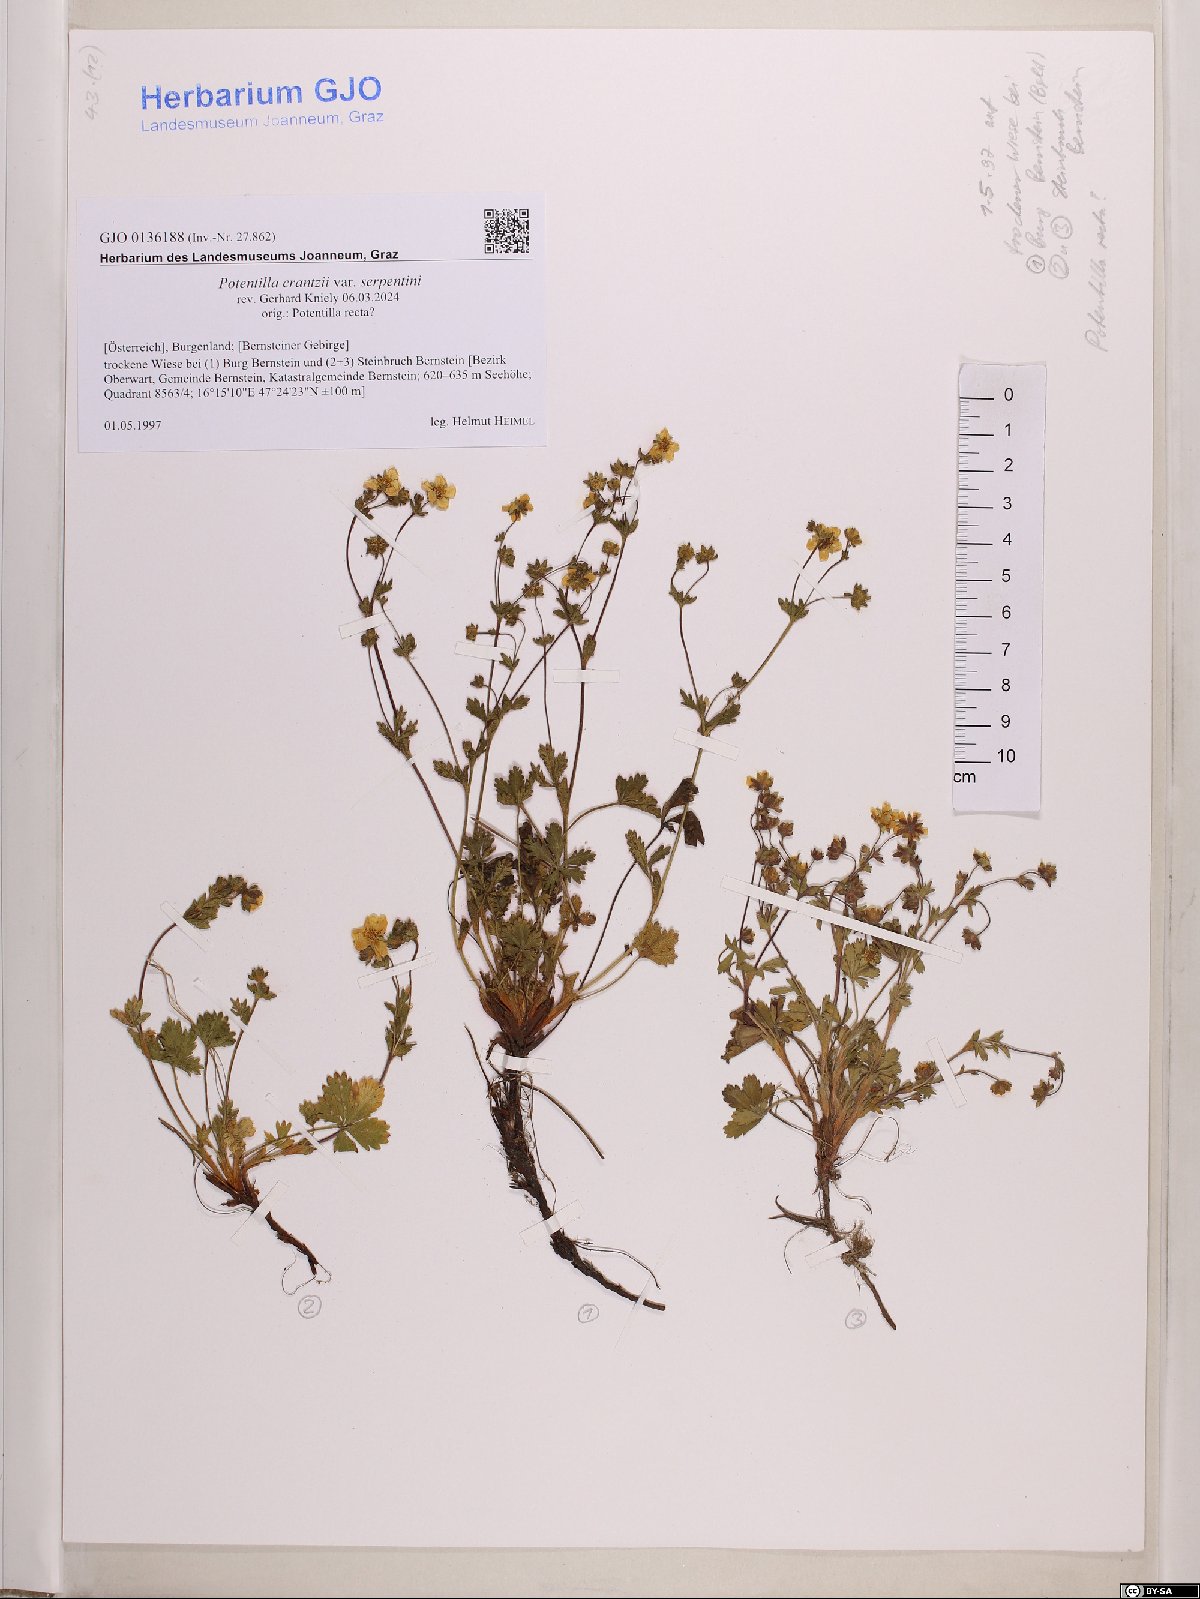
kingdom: Plantae
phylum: Tracheophyta
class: Magnoliopsida
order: Rosales
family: Rosaceae
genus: Potentilla
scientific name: Potentilla crantzii
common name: Alpine cinquefoil
